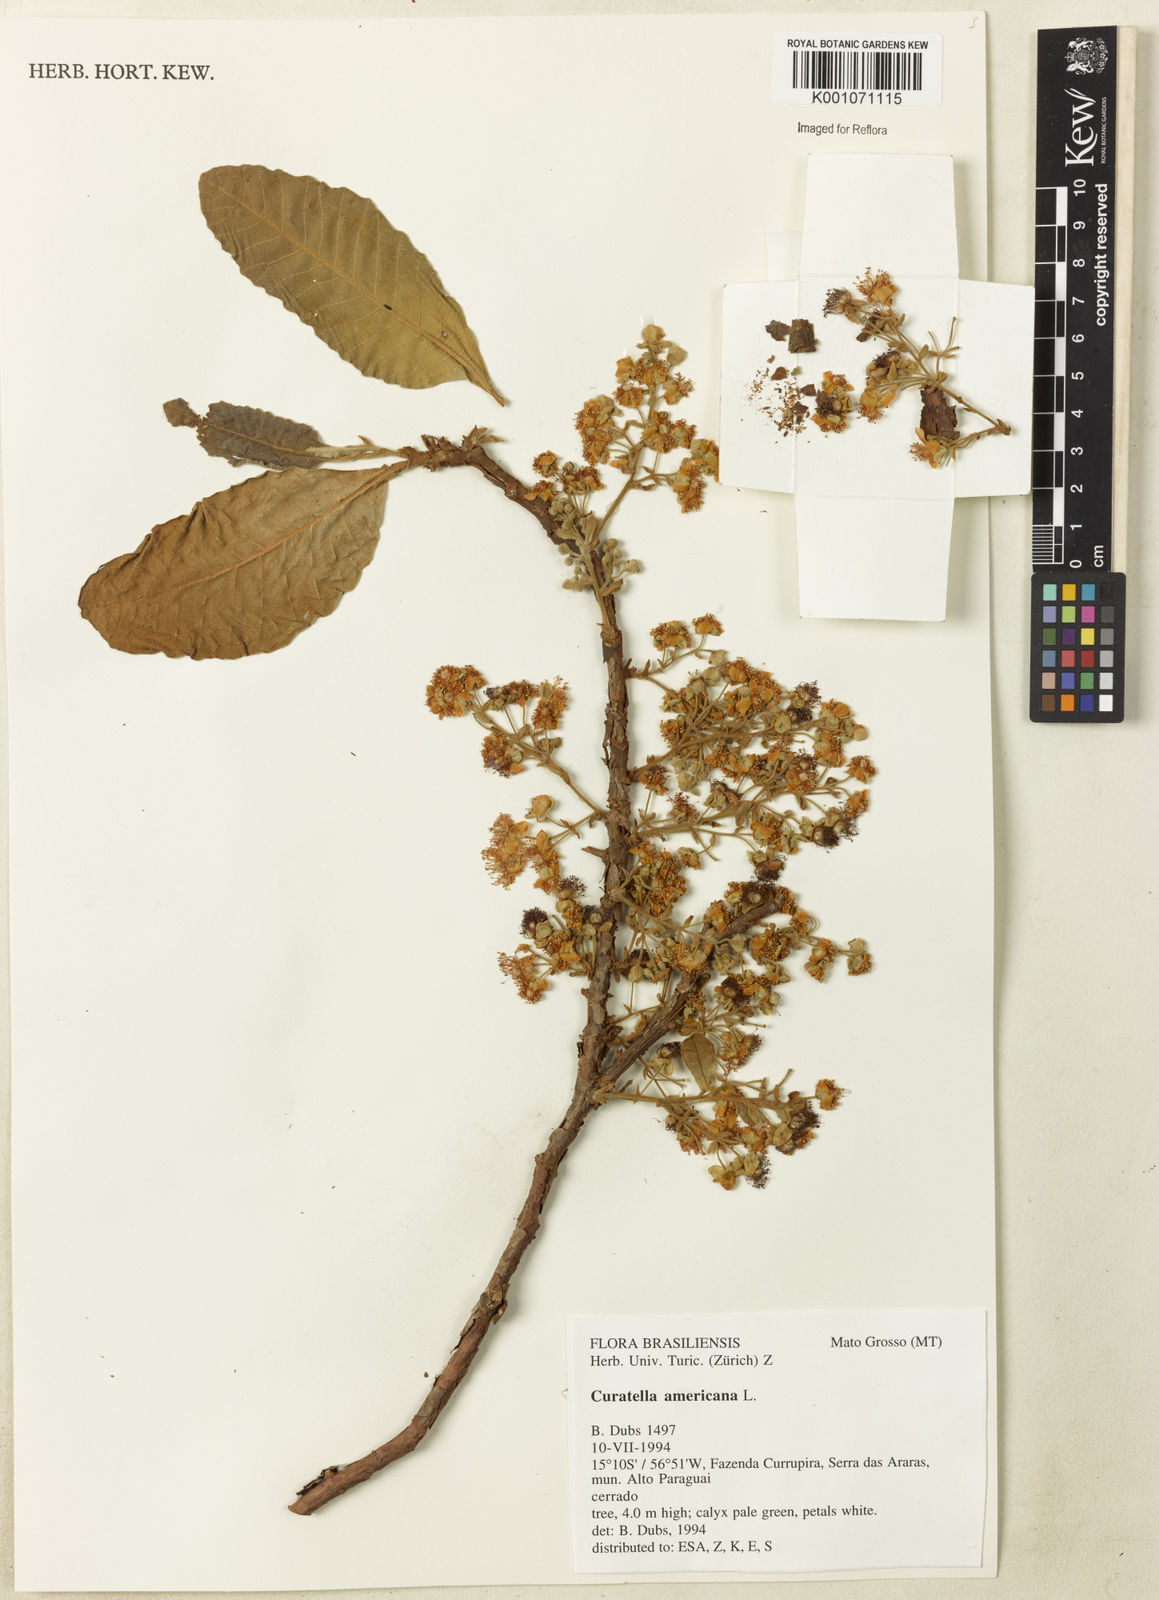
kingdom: Plantae
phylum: Tracheophyta
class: Magnoliopsida
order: Dilleniales
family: Dilleniaceae
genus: Curatella
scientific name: Curatella americana
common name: Sandpaper tree
